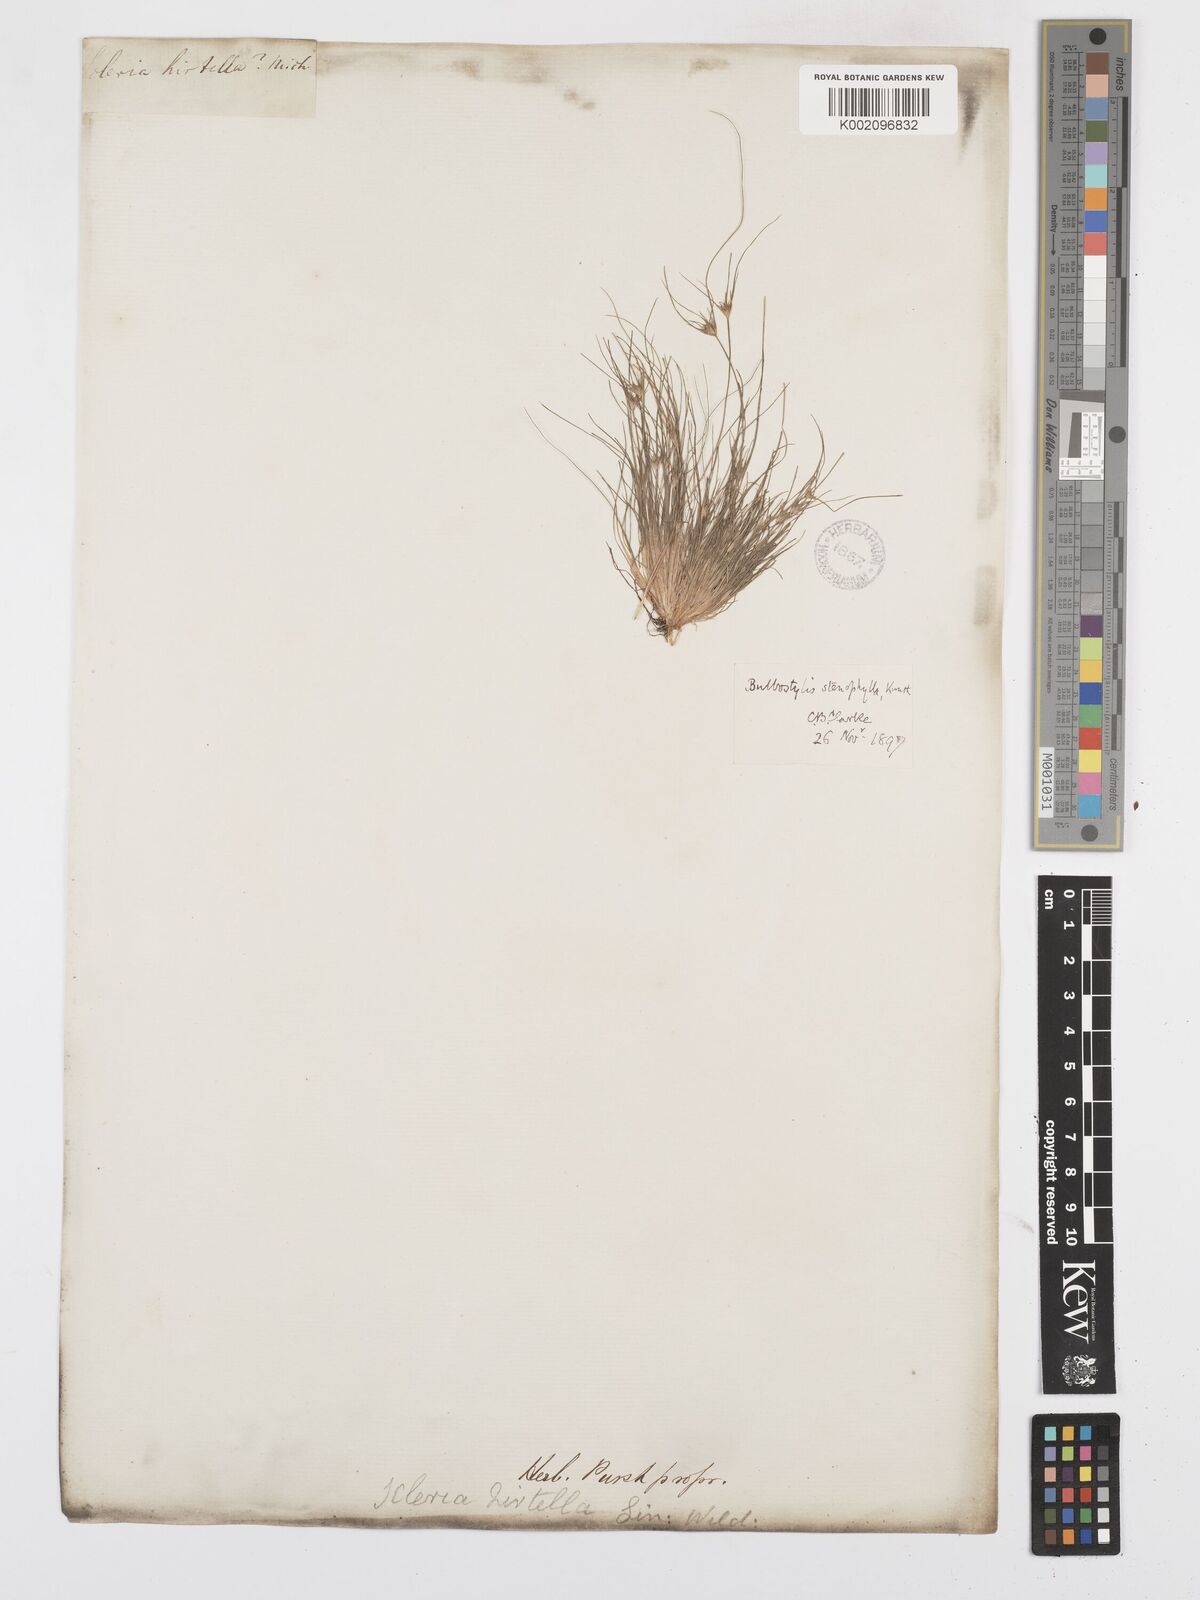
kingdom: Plantae
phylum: Tracheophyta
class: Liliopsida
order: Poales
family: Cyperaceae
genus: Bulbostylis
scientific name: Bulbostylis rarissima
